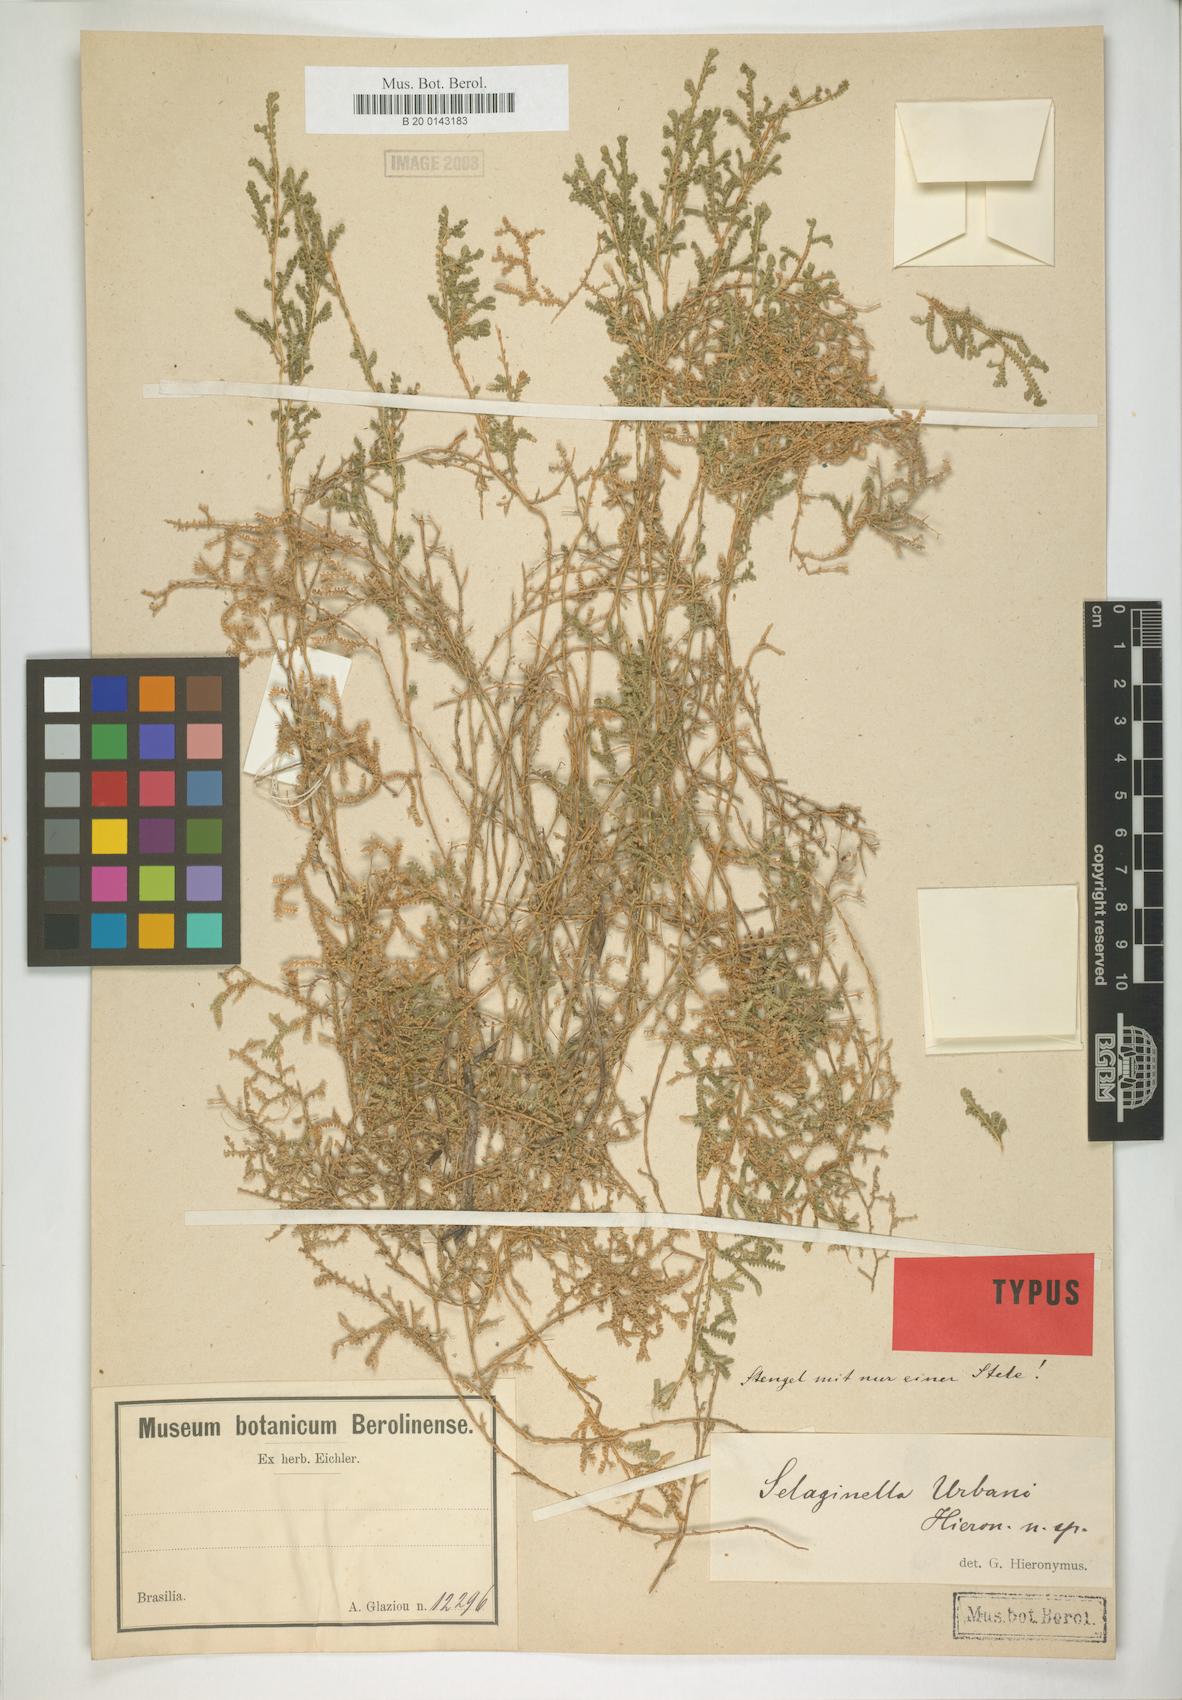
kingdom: Plantae
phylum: Tracheophyta
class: Lycopodiopsida
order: Selaginellales
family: Selaginellaceae
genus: Selaginella
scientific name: Selaginella marginata
